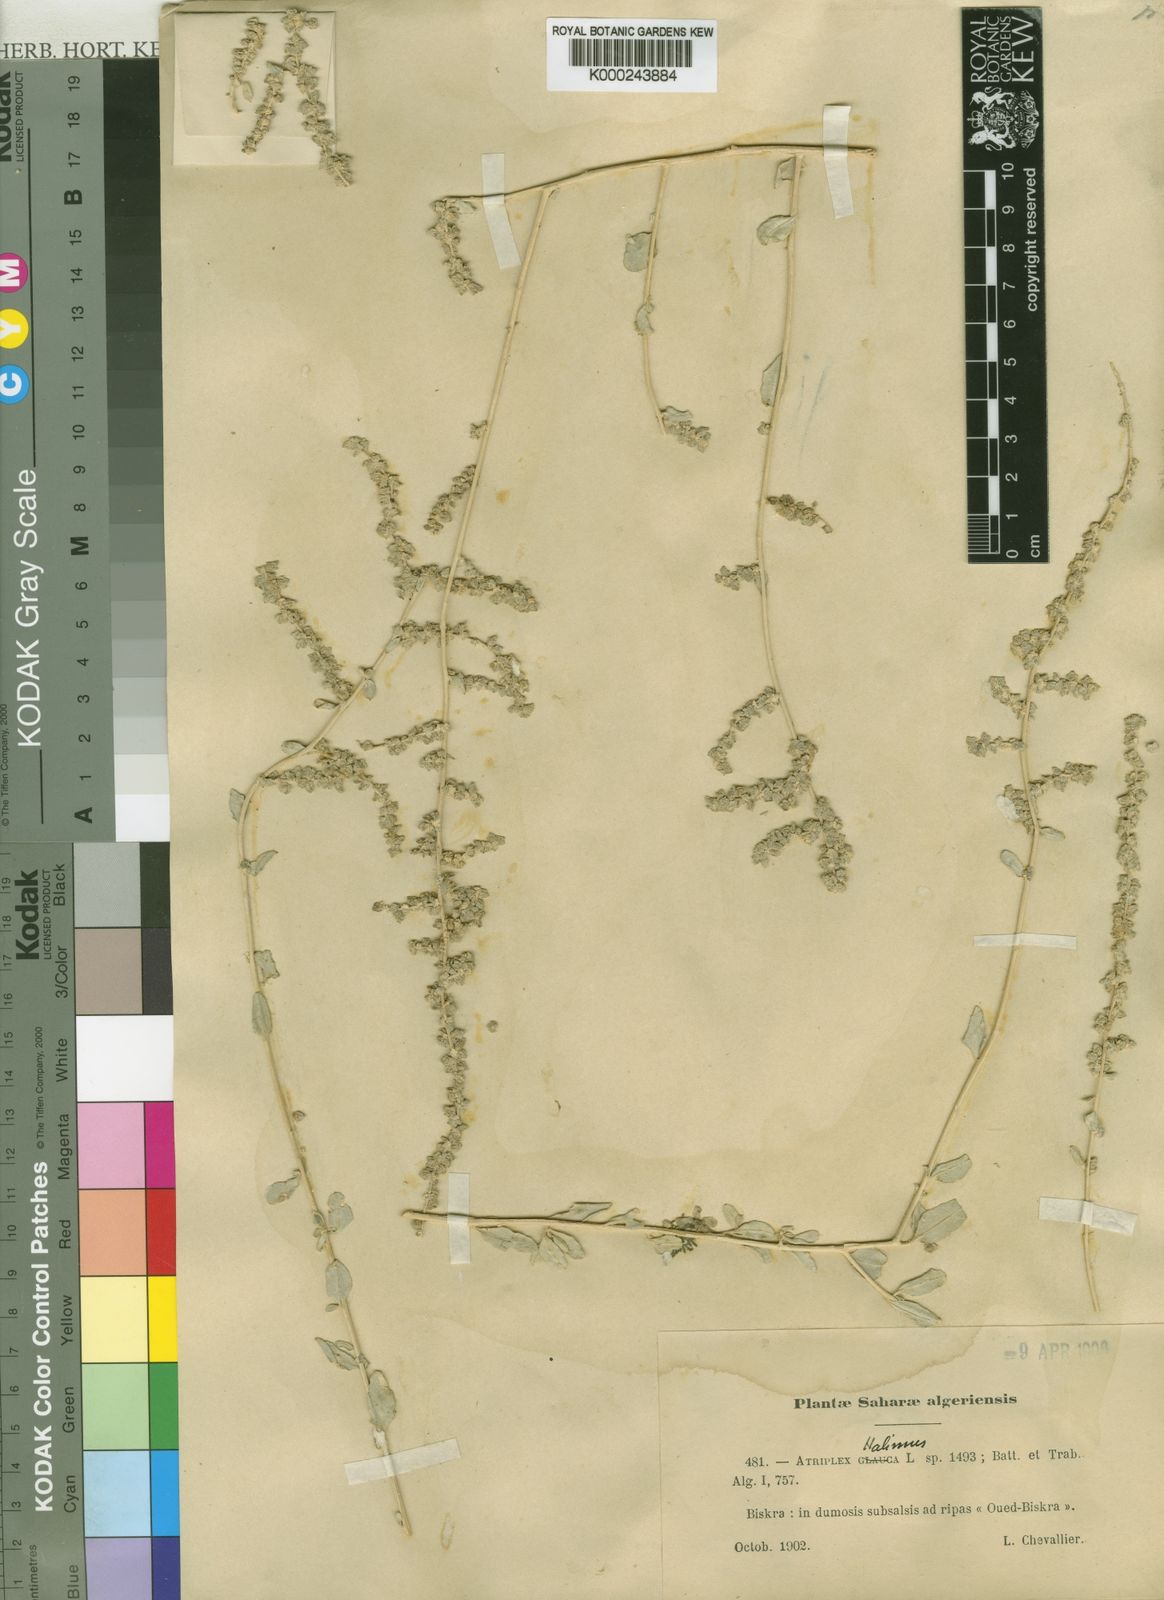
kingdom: Plantae
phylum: Tracheophyta
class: Magnoliopsida
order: Caryophyllales
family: Amaranthaceae
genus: Atriplex
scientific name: Atriplex halimus
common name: Shrubby orache
